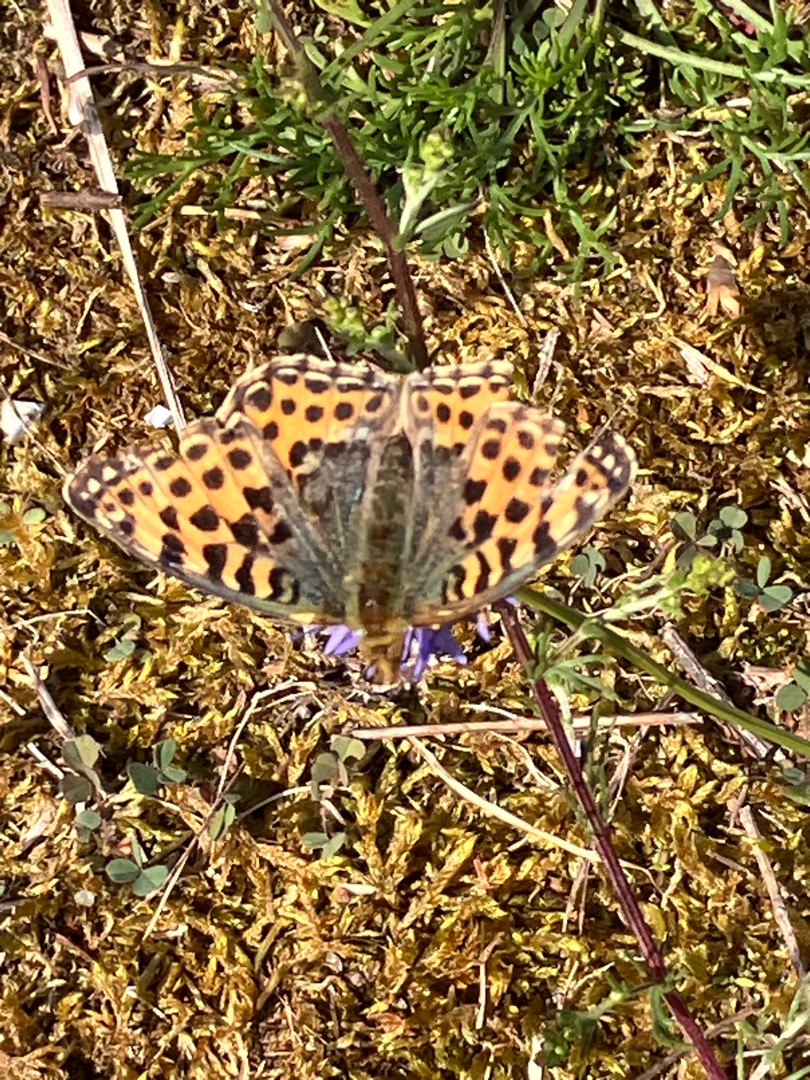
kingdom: Animalia
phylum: Arthropoda
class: Insecta
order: Lepidoptera
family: Nymphalidae
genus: Issoria
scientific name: Issoria lathonia
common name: Storplettet perlemorsommerfugl
